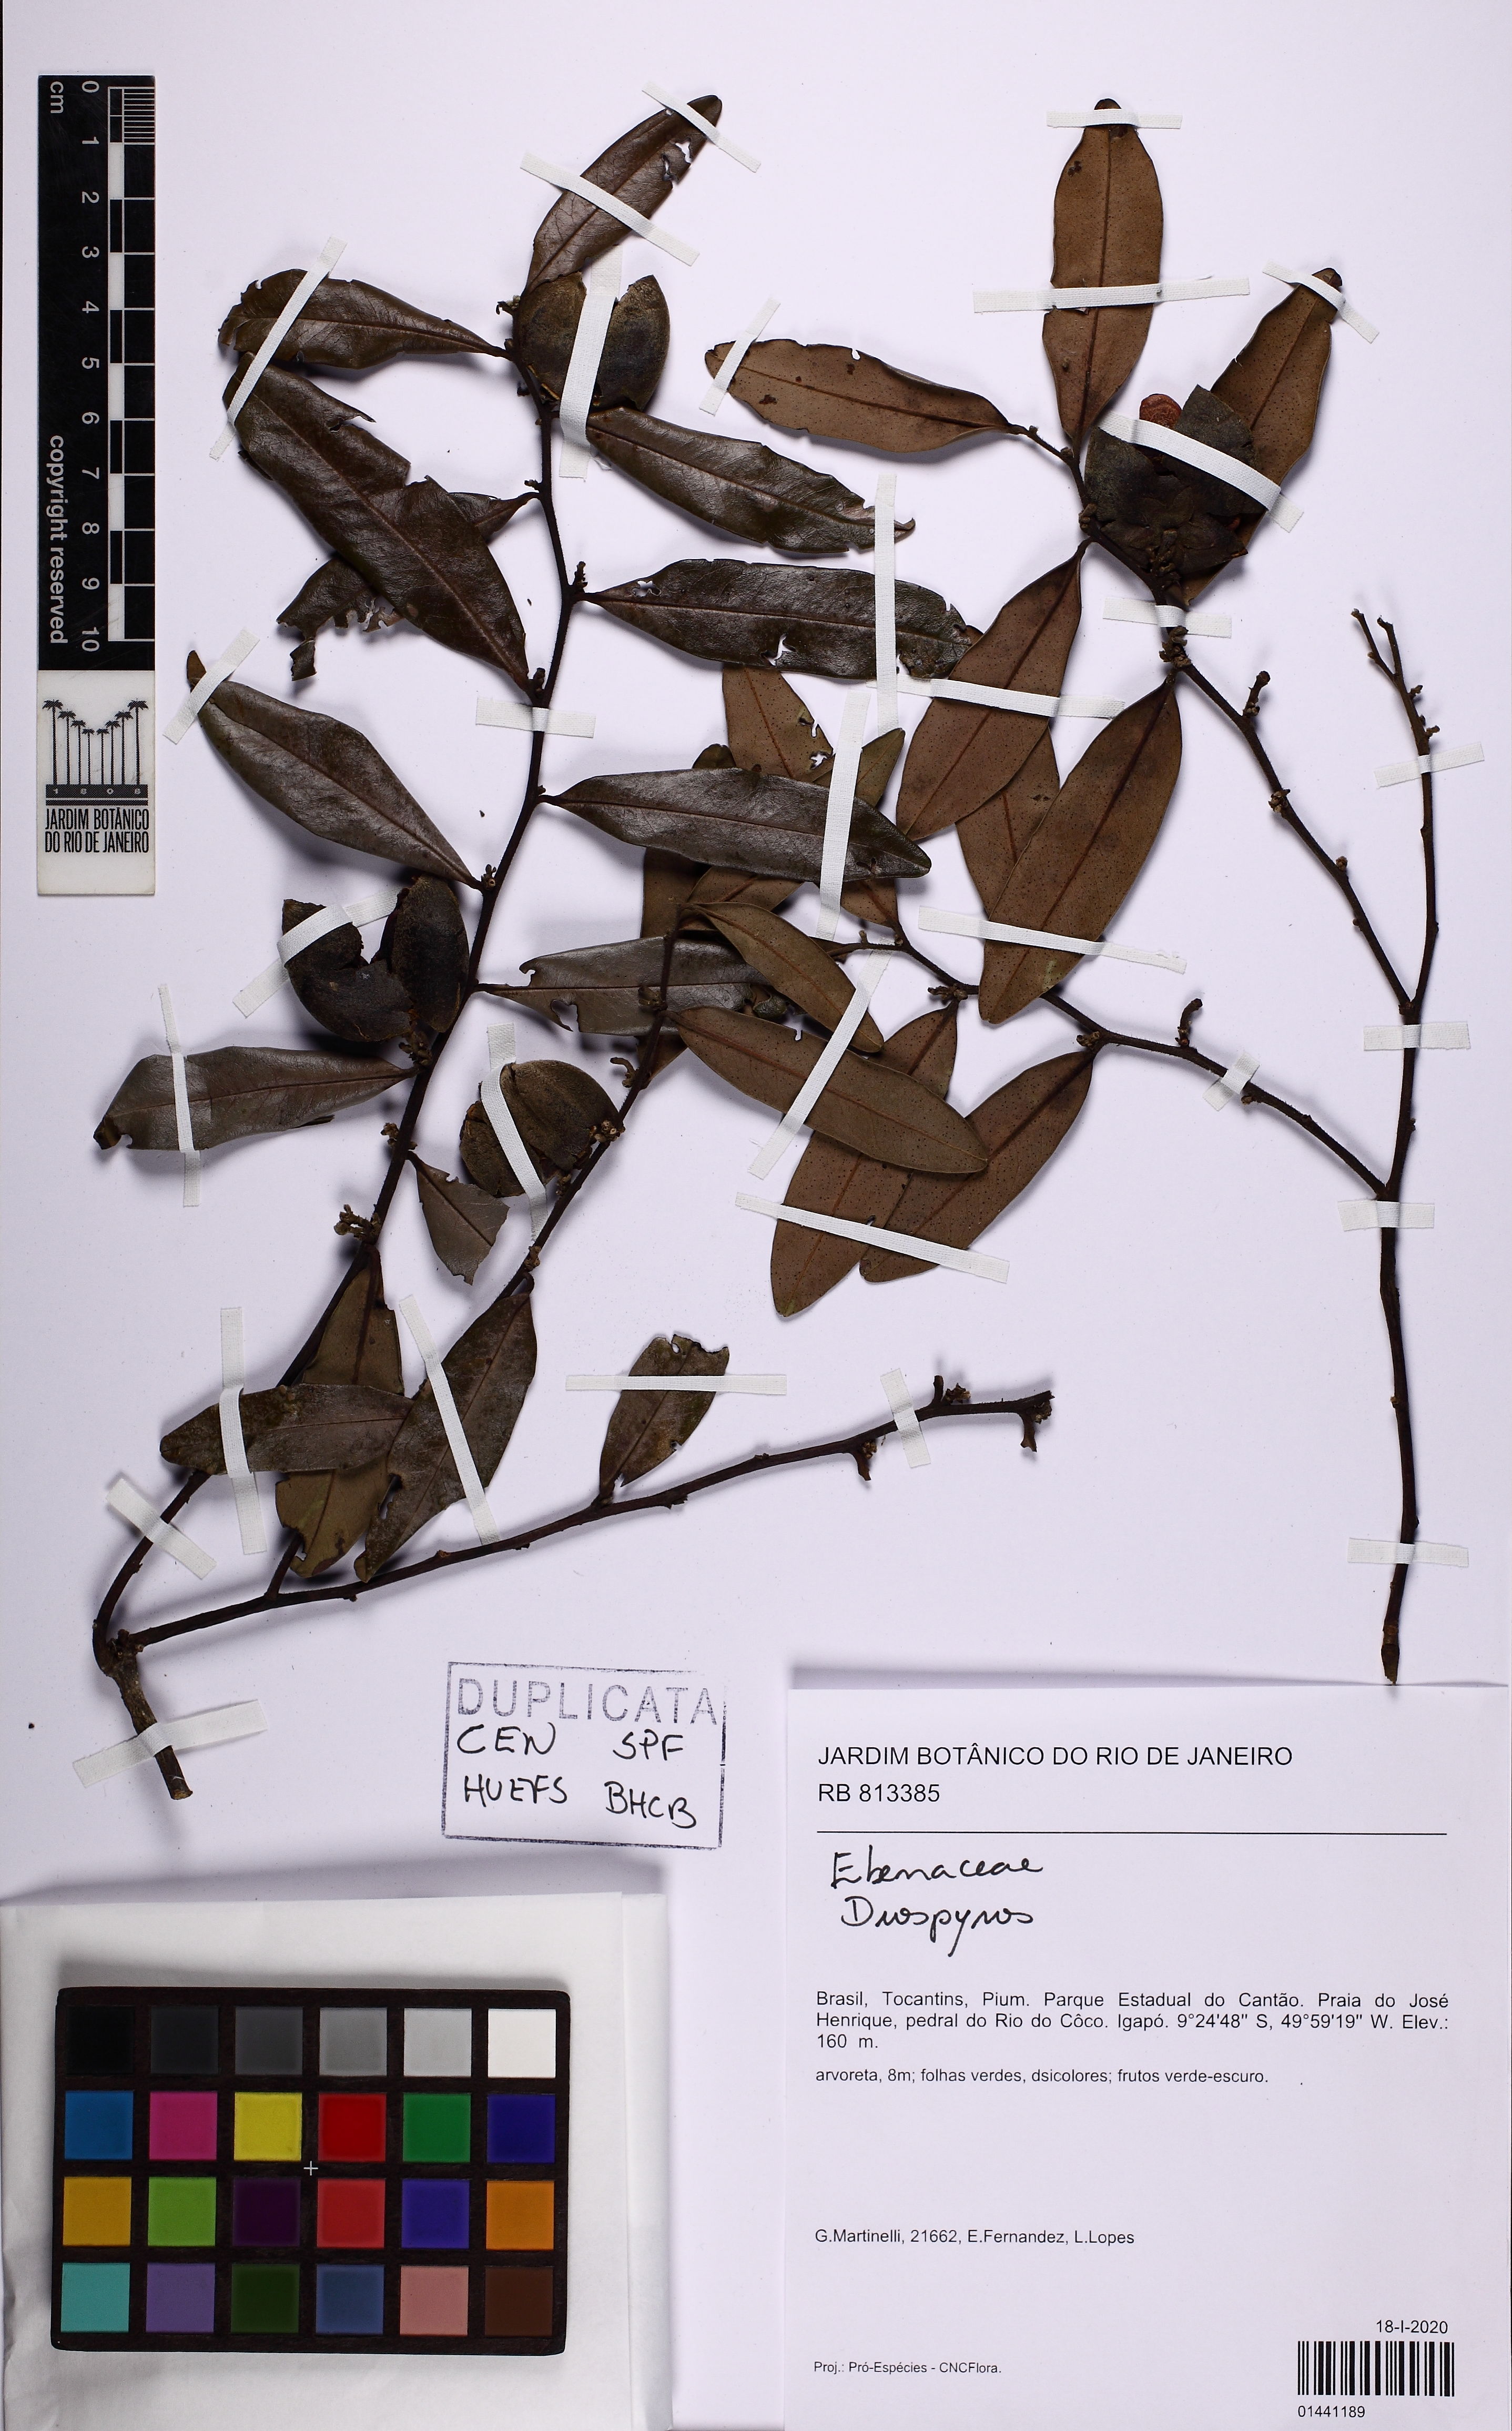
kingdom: Plantae
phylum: Tracheophyta
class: Magnoliopsida
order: Ericales
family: Ebenaceae
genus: Diospyros
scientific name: Diospyros
